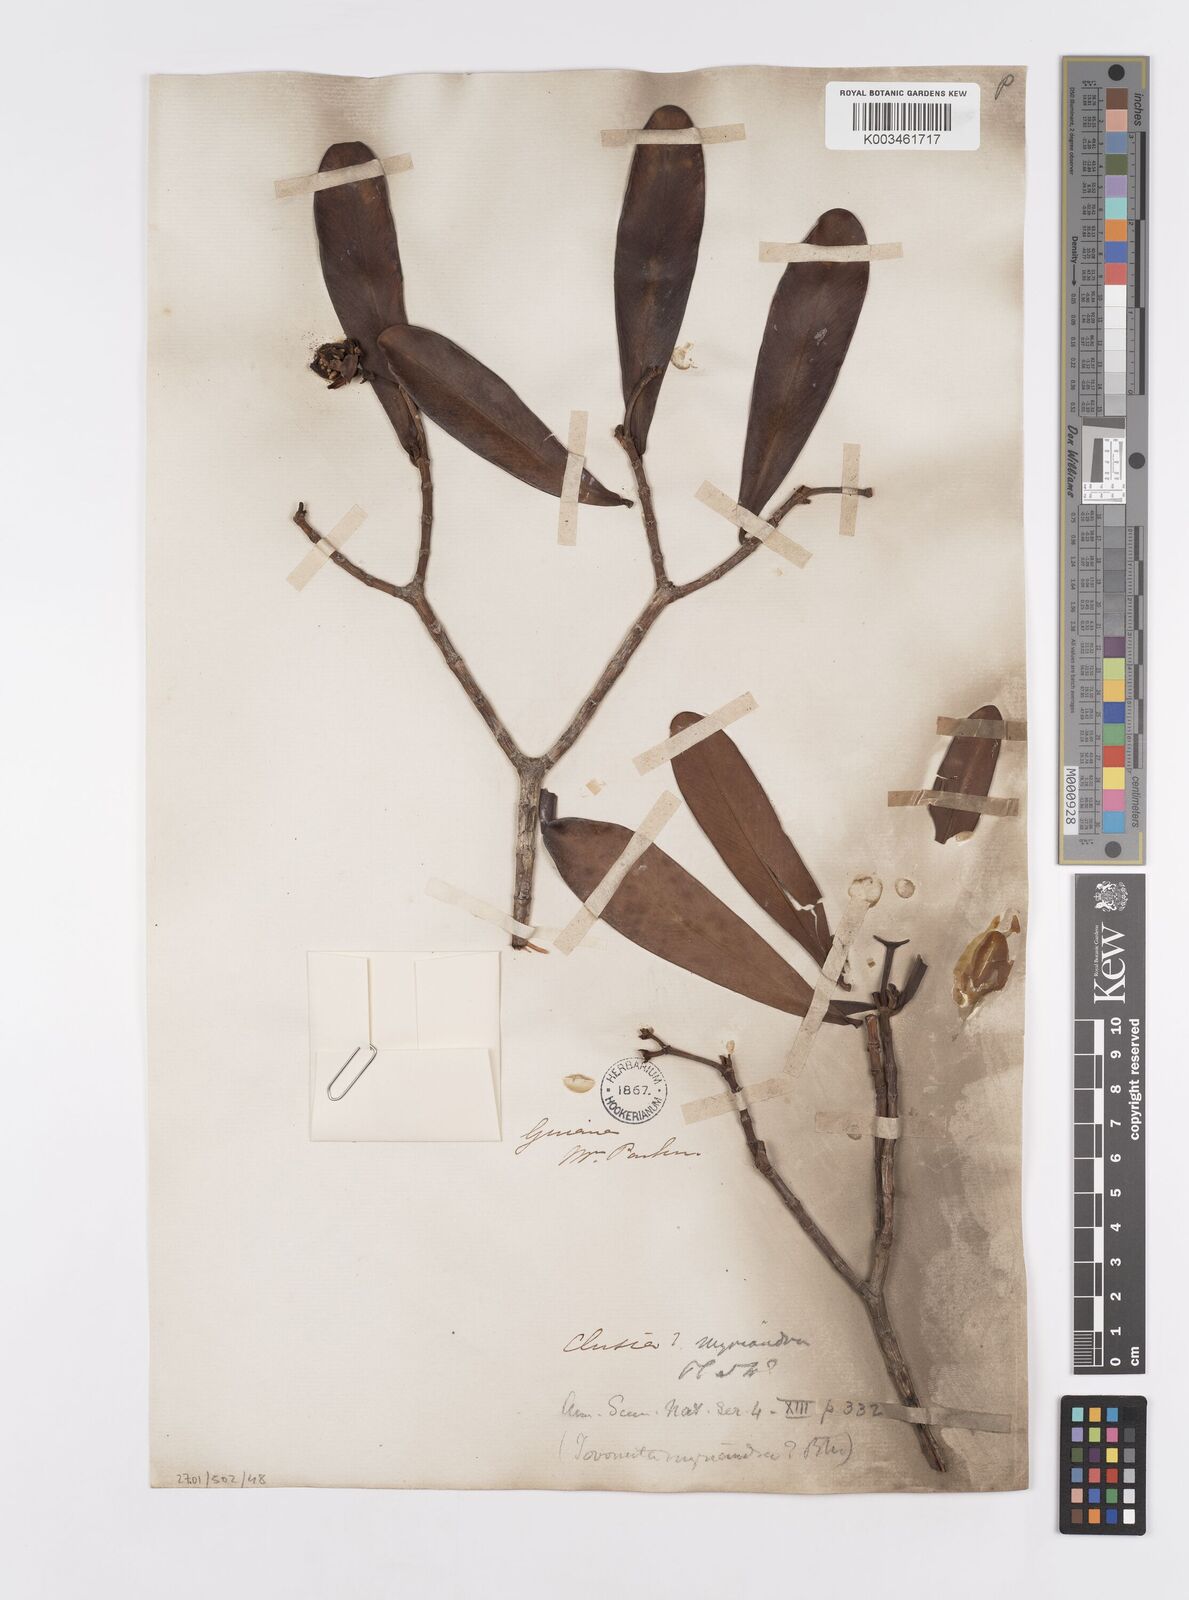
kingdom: Plantae
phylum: Tracheophyta
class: Magnoliopsida
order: Malpighiales
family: Clusiaceae
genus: Clusia
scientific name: Clusia myriandra
